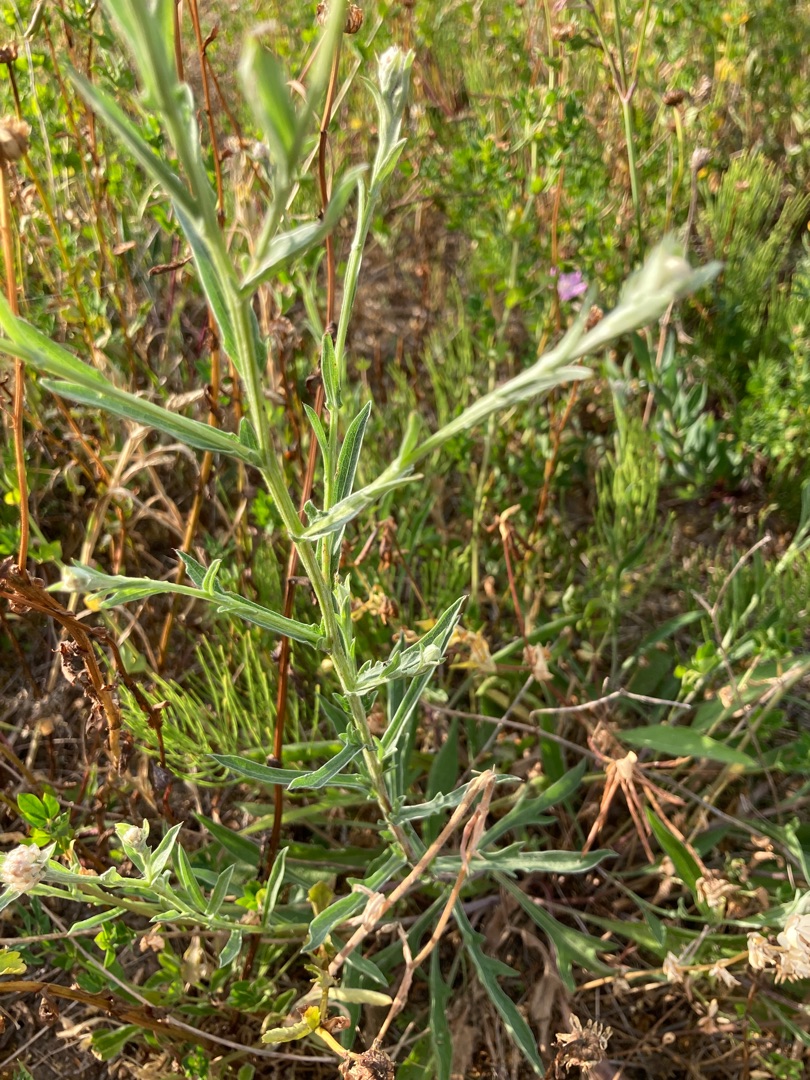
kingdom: Plantae
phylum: Tracheophyta
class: Magnoliopsida
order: Asterales
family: Asteraceae
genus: Centaurea
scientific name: Centaurea jacea
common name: Almindelig knopurt
